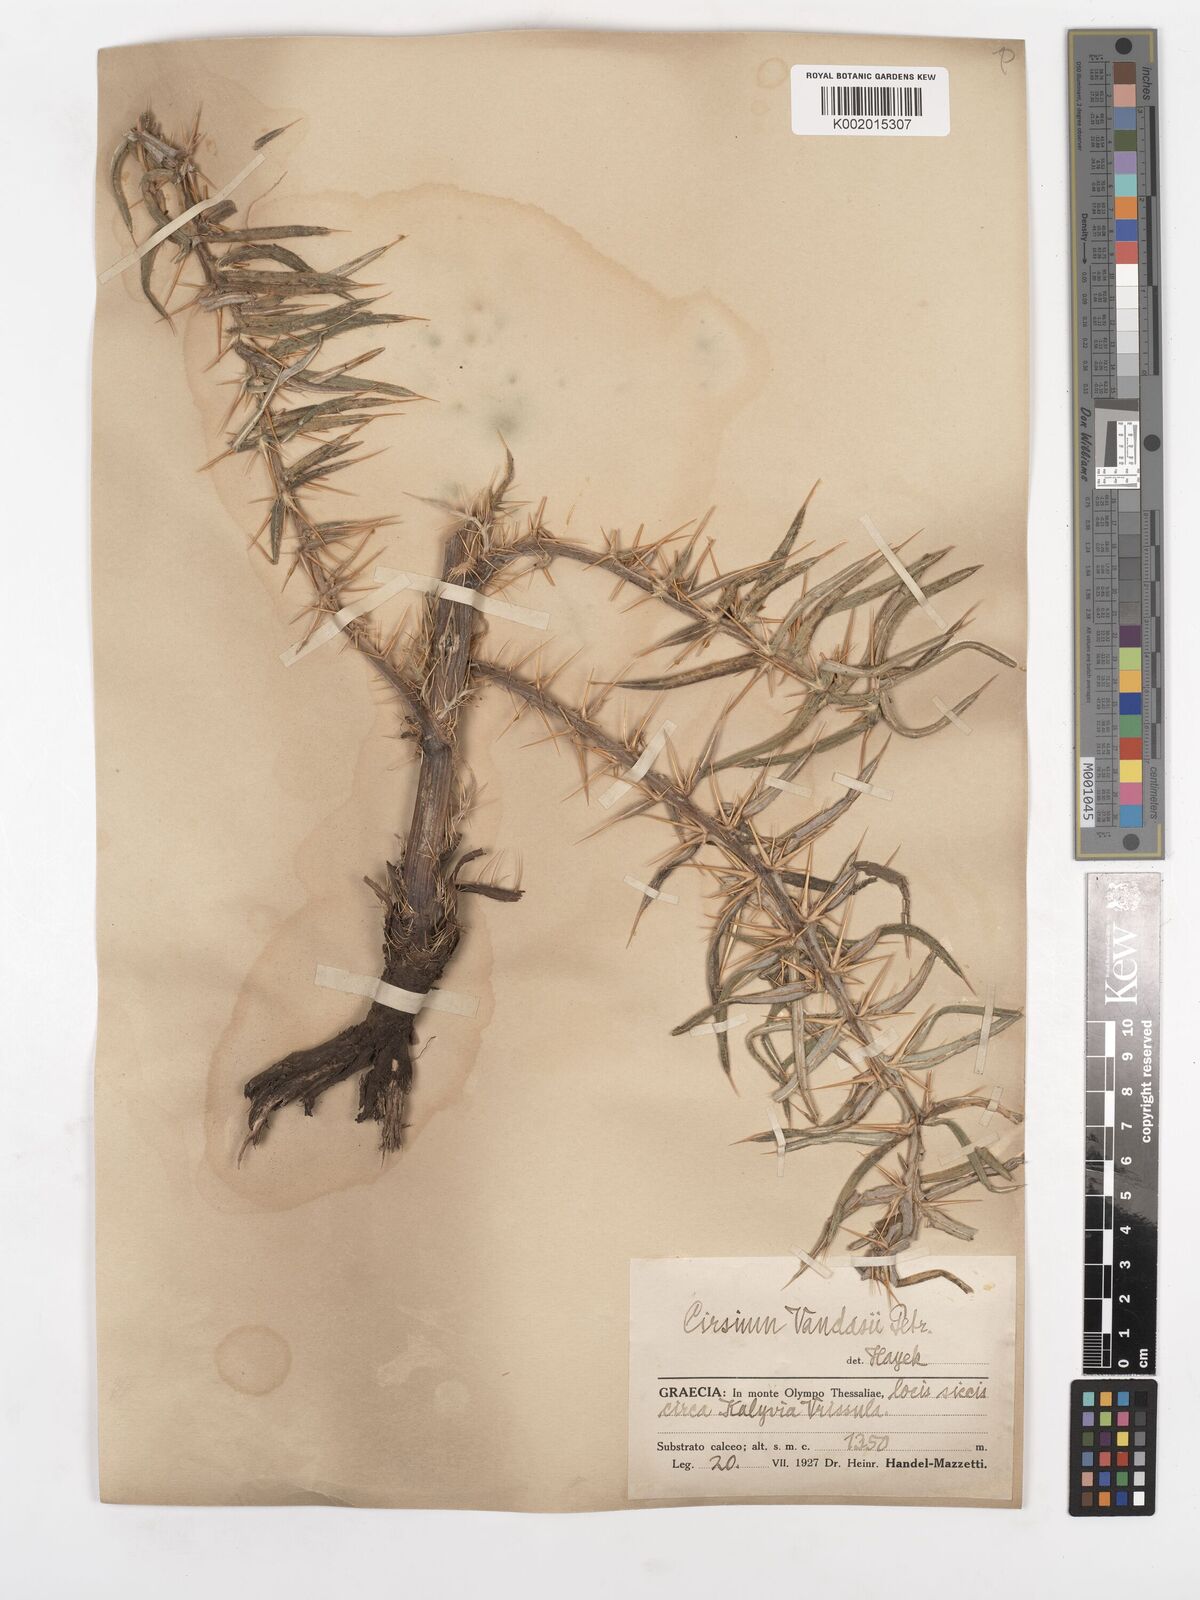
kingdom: Plantae
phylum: Tracheophyta
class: Magnoliopsida
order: Asterales
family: Asteraceae
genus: Lophiolepis
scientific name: Lophiolepis eriophora
